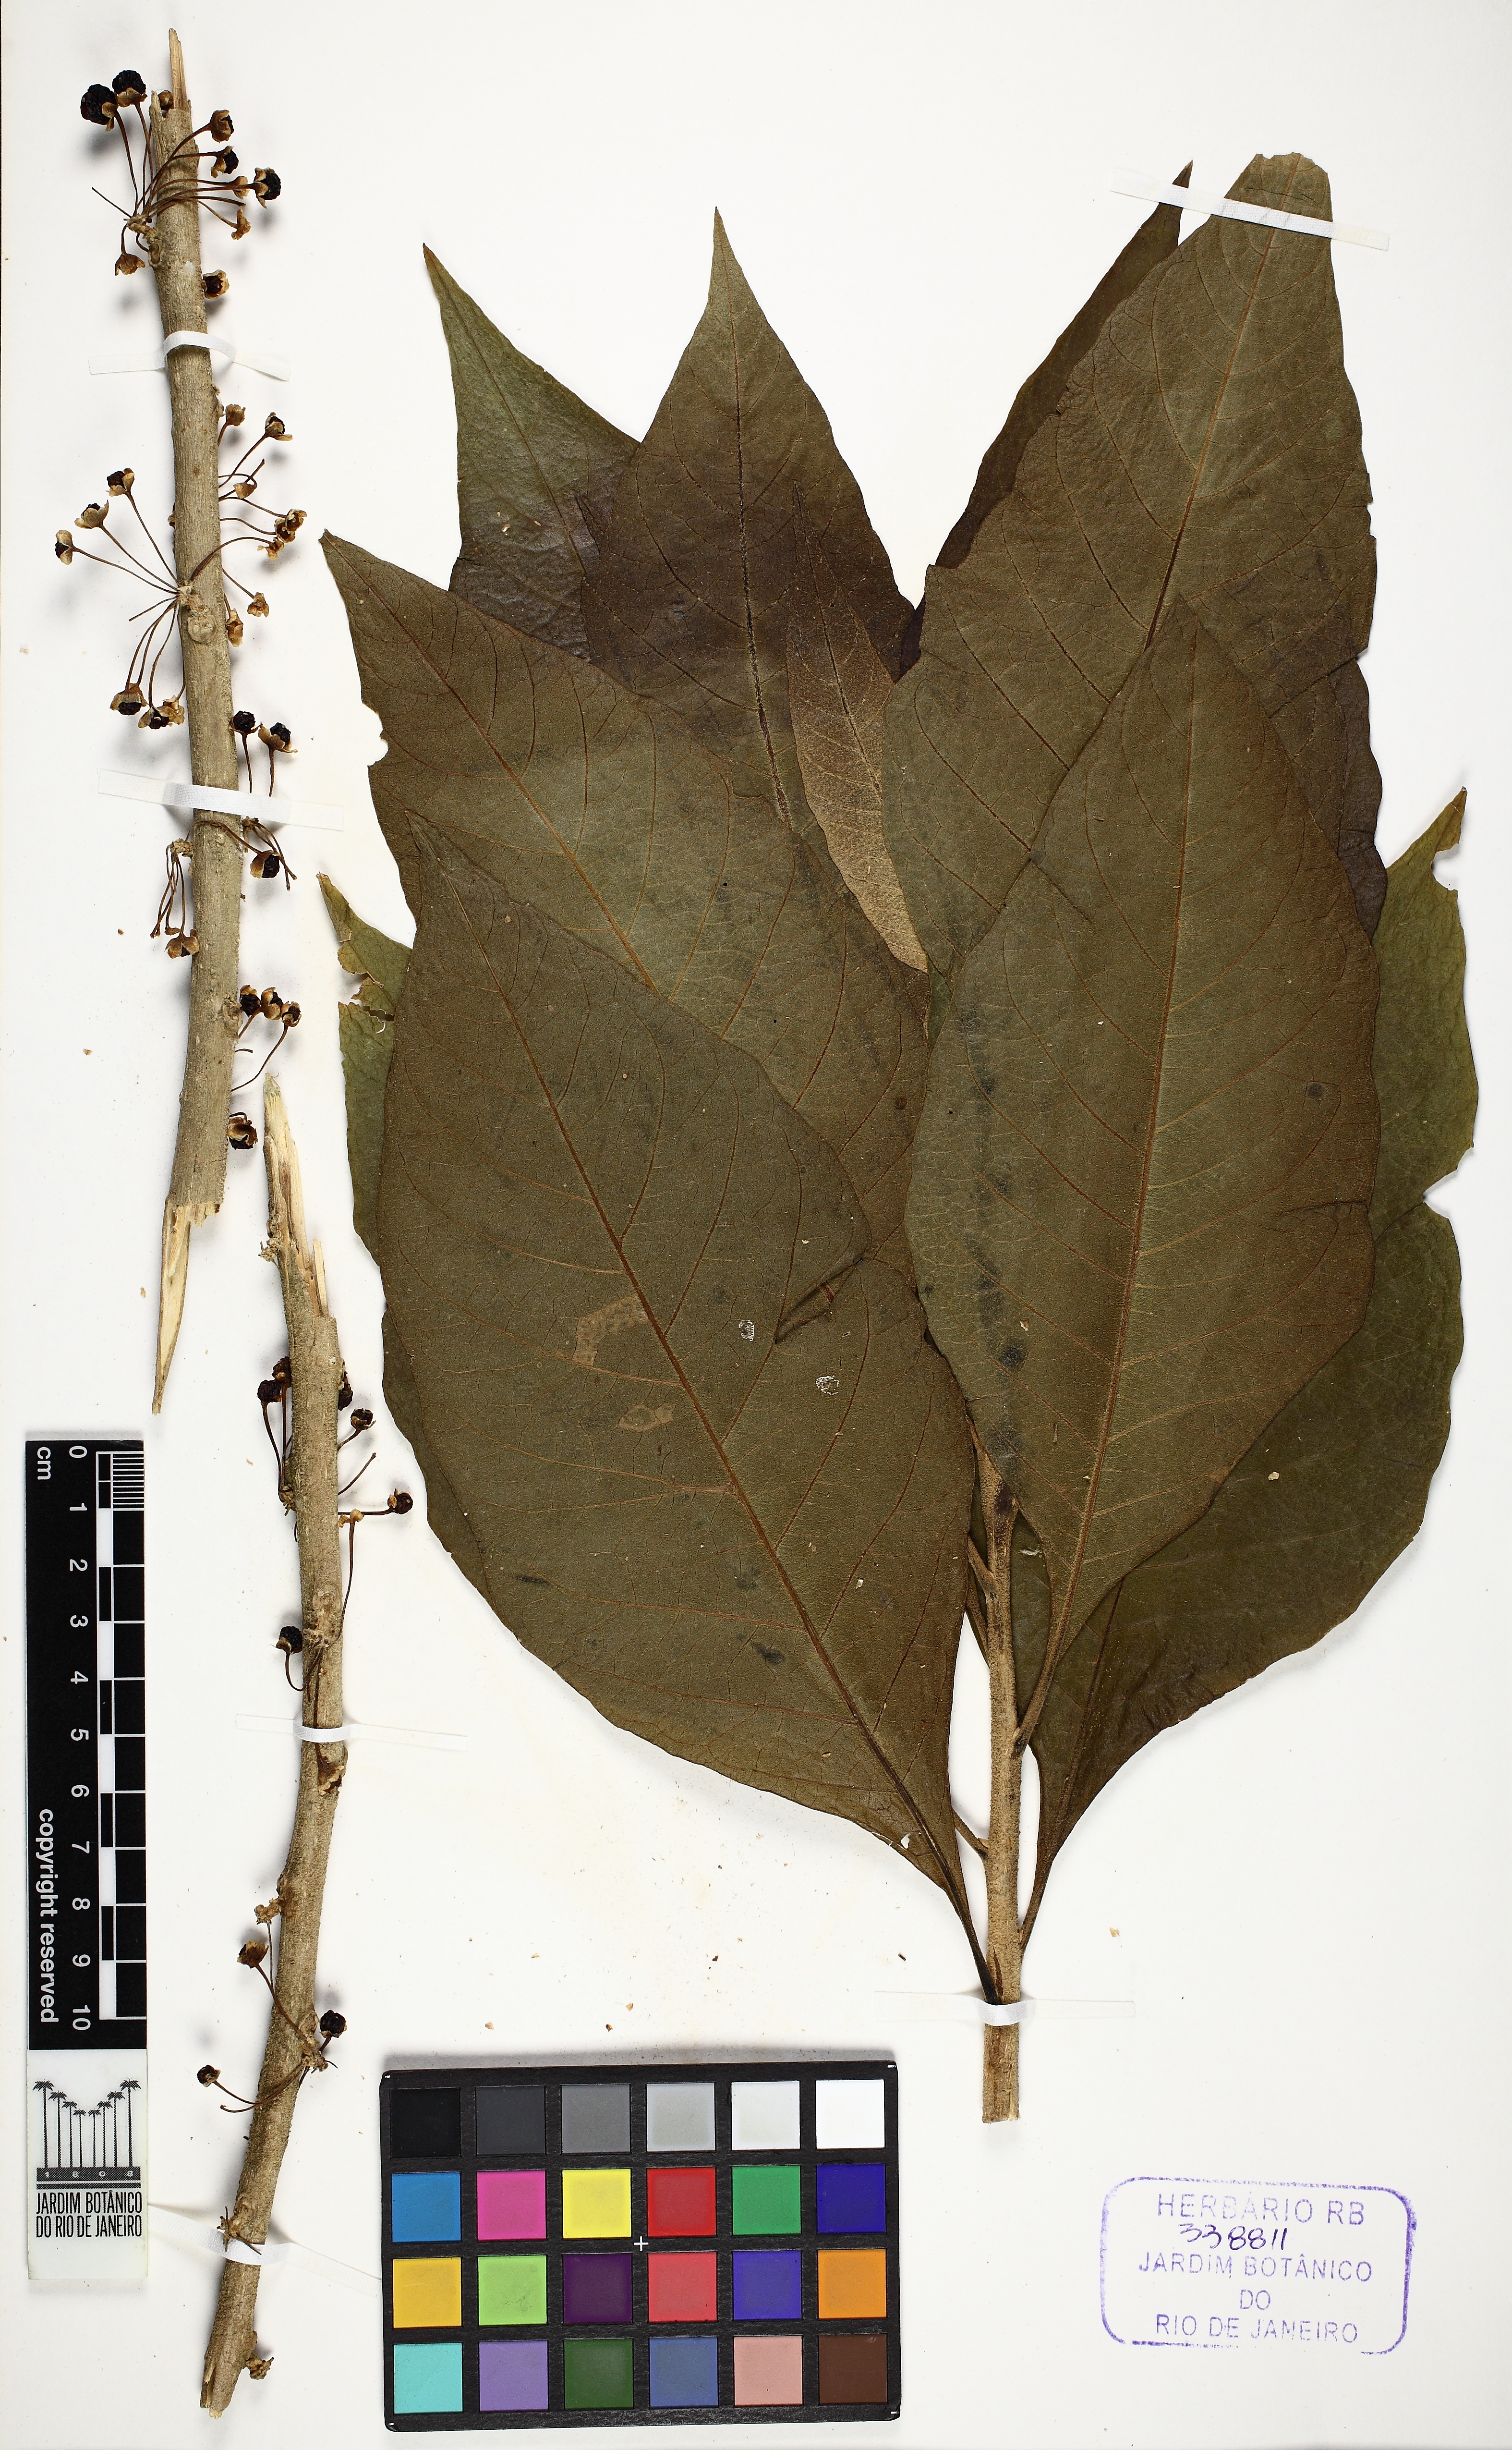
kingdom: Plantae
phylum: Tracheophyta
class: Magnoliopsida
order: Solanales
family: Solanaceae
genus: Iochroma
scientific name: Iochroma arborescens
